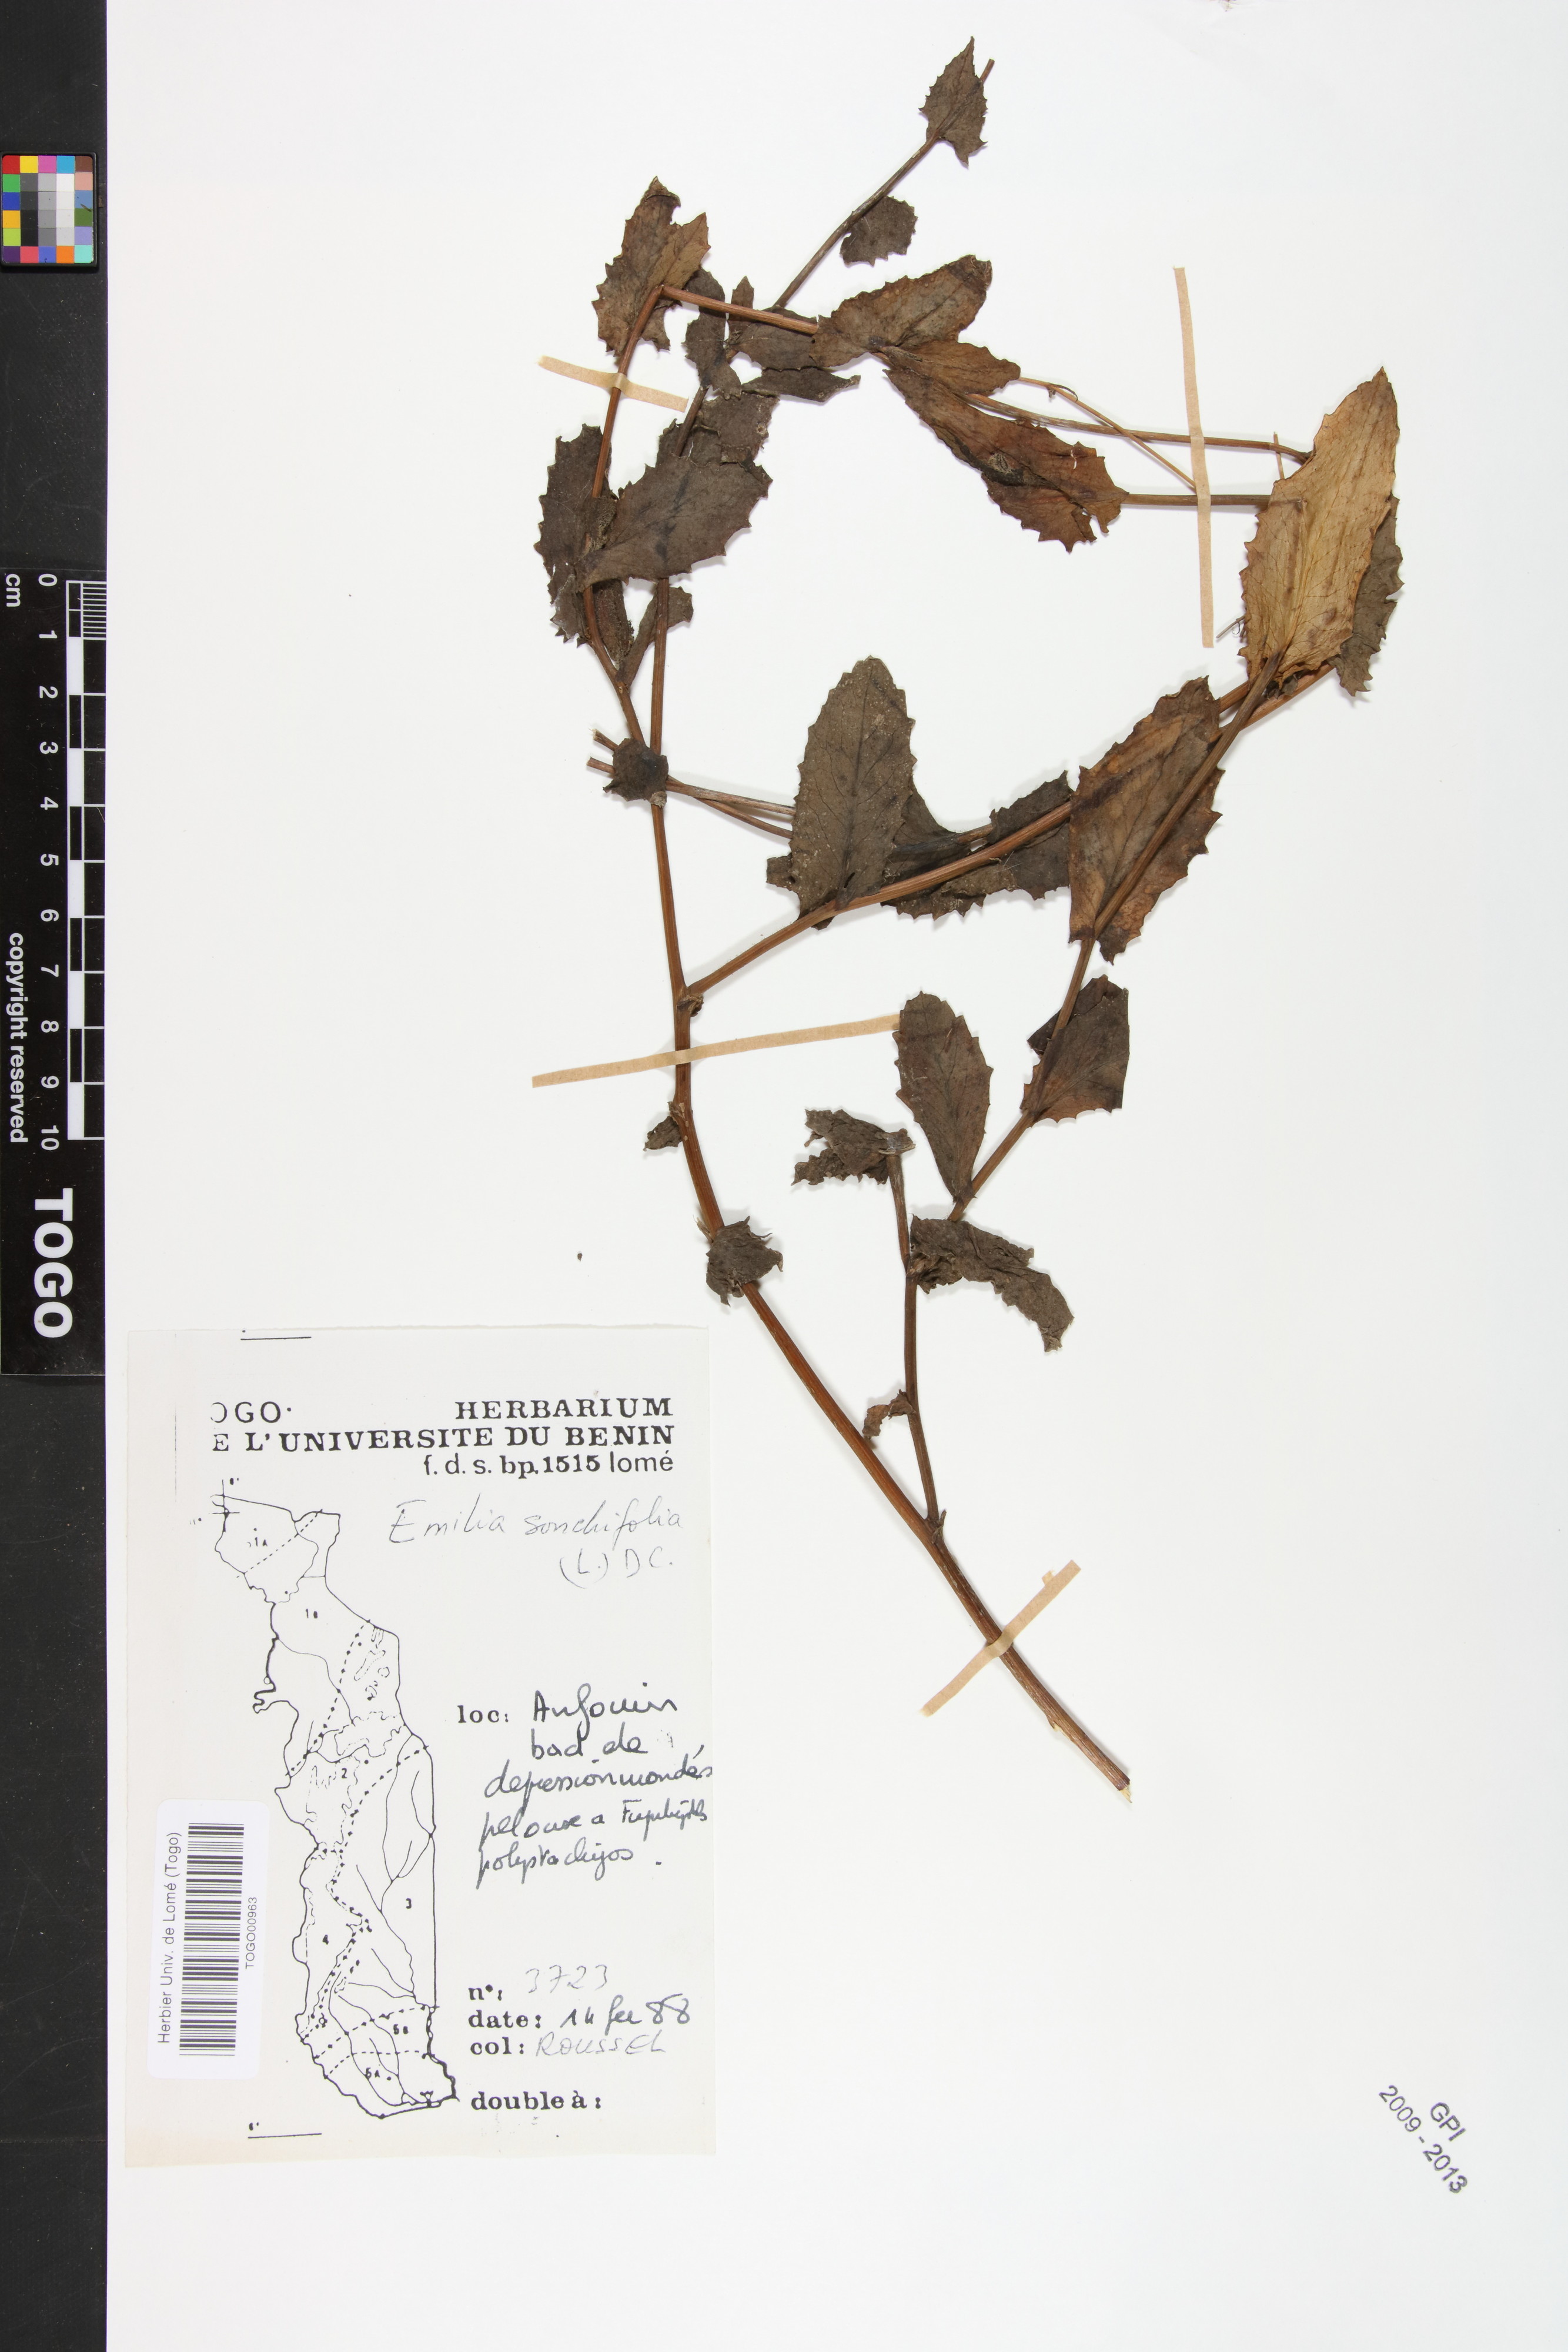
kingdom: Plantae
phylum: Tracheophyta
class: Magnoliopsida
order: Asterales
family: Asteraceae
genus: Emilia
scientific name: Emilia sonchifolia
